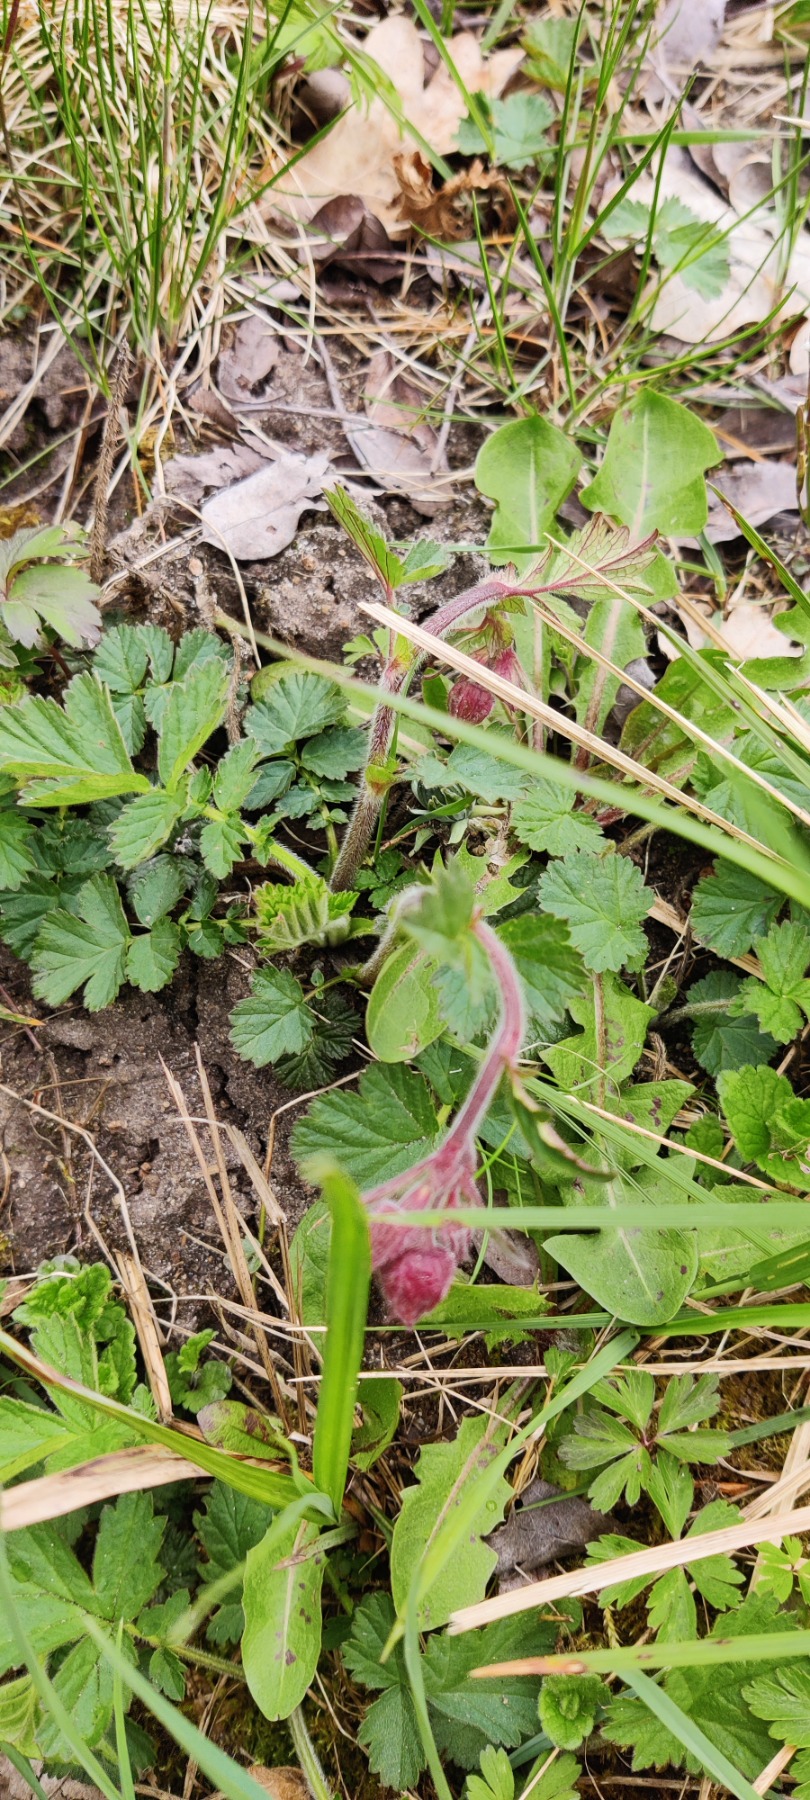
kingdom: Plantae
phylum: Tracheophyta
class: Magnoliopsida
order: Rosales
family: Rosaceae
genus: Geum
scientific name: Geum rivale
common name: Eng-nellikerod
